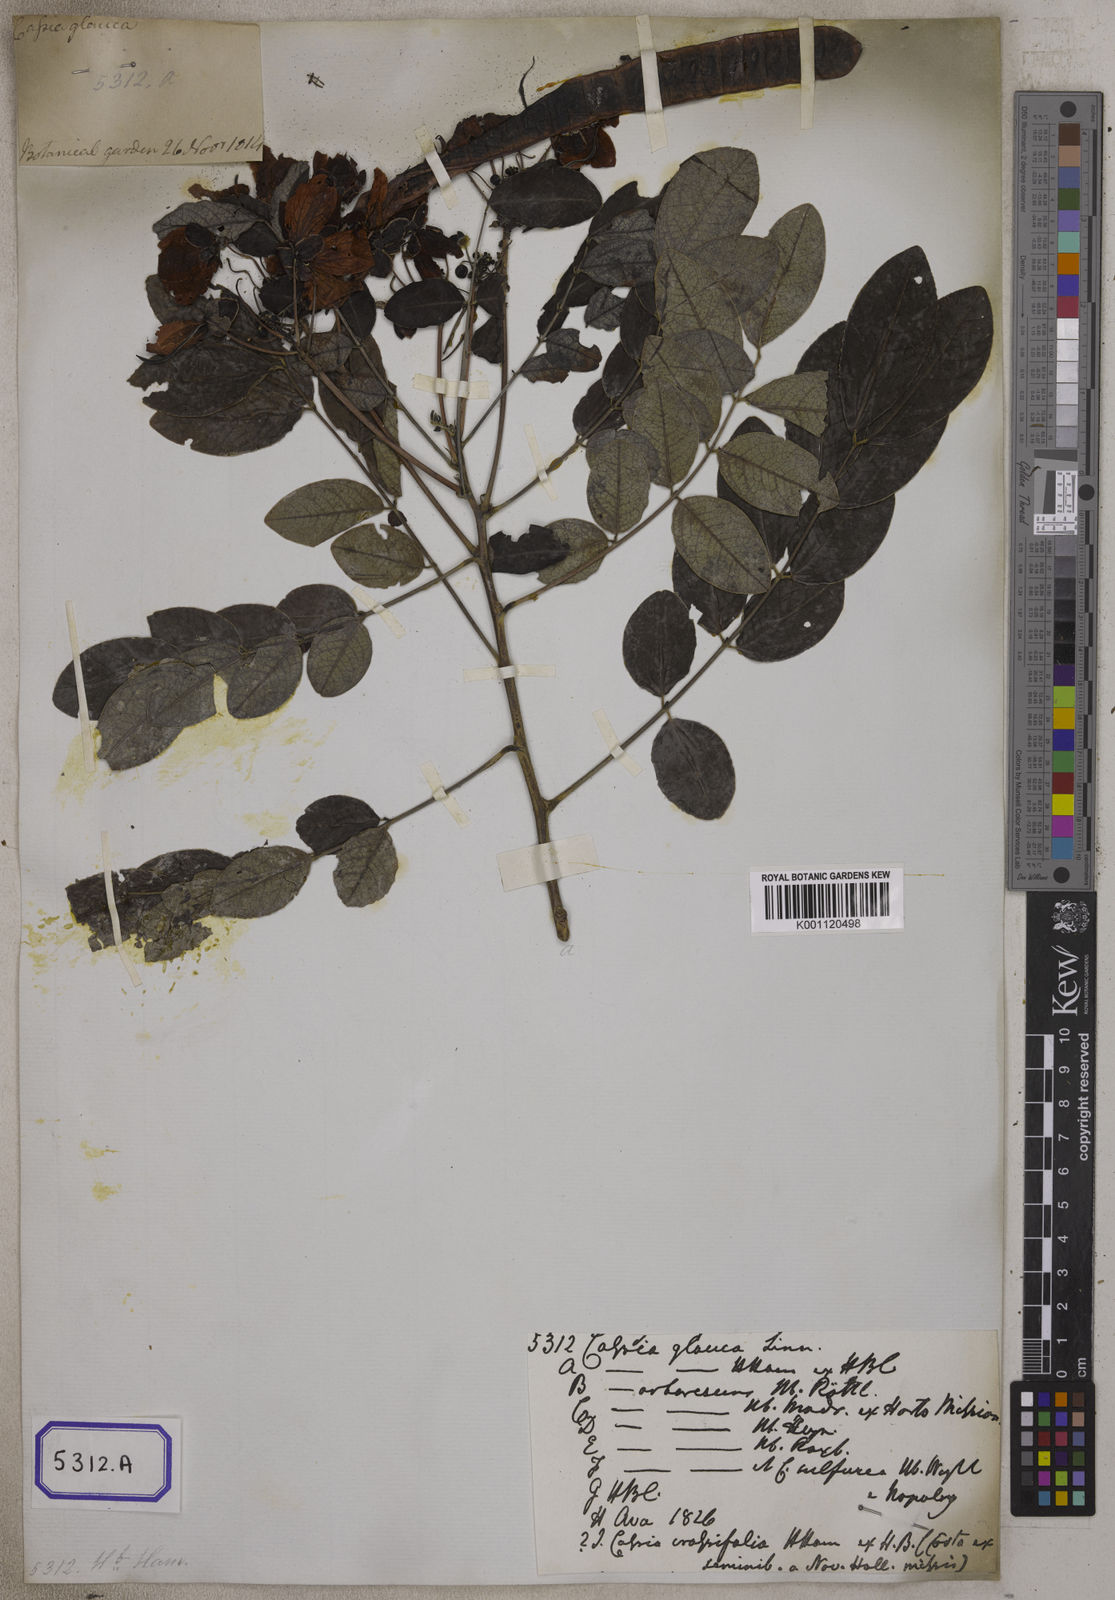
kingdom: Plantae
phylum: Tracheophyta
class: Magnoliopsida
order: Fabales
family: Fabaceae
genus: Senna
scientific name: Senna sulfurea
